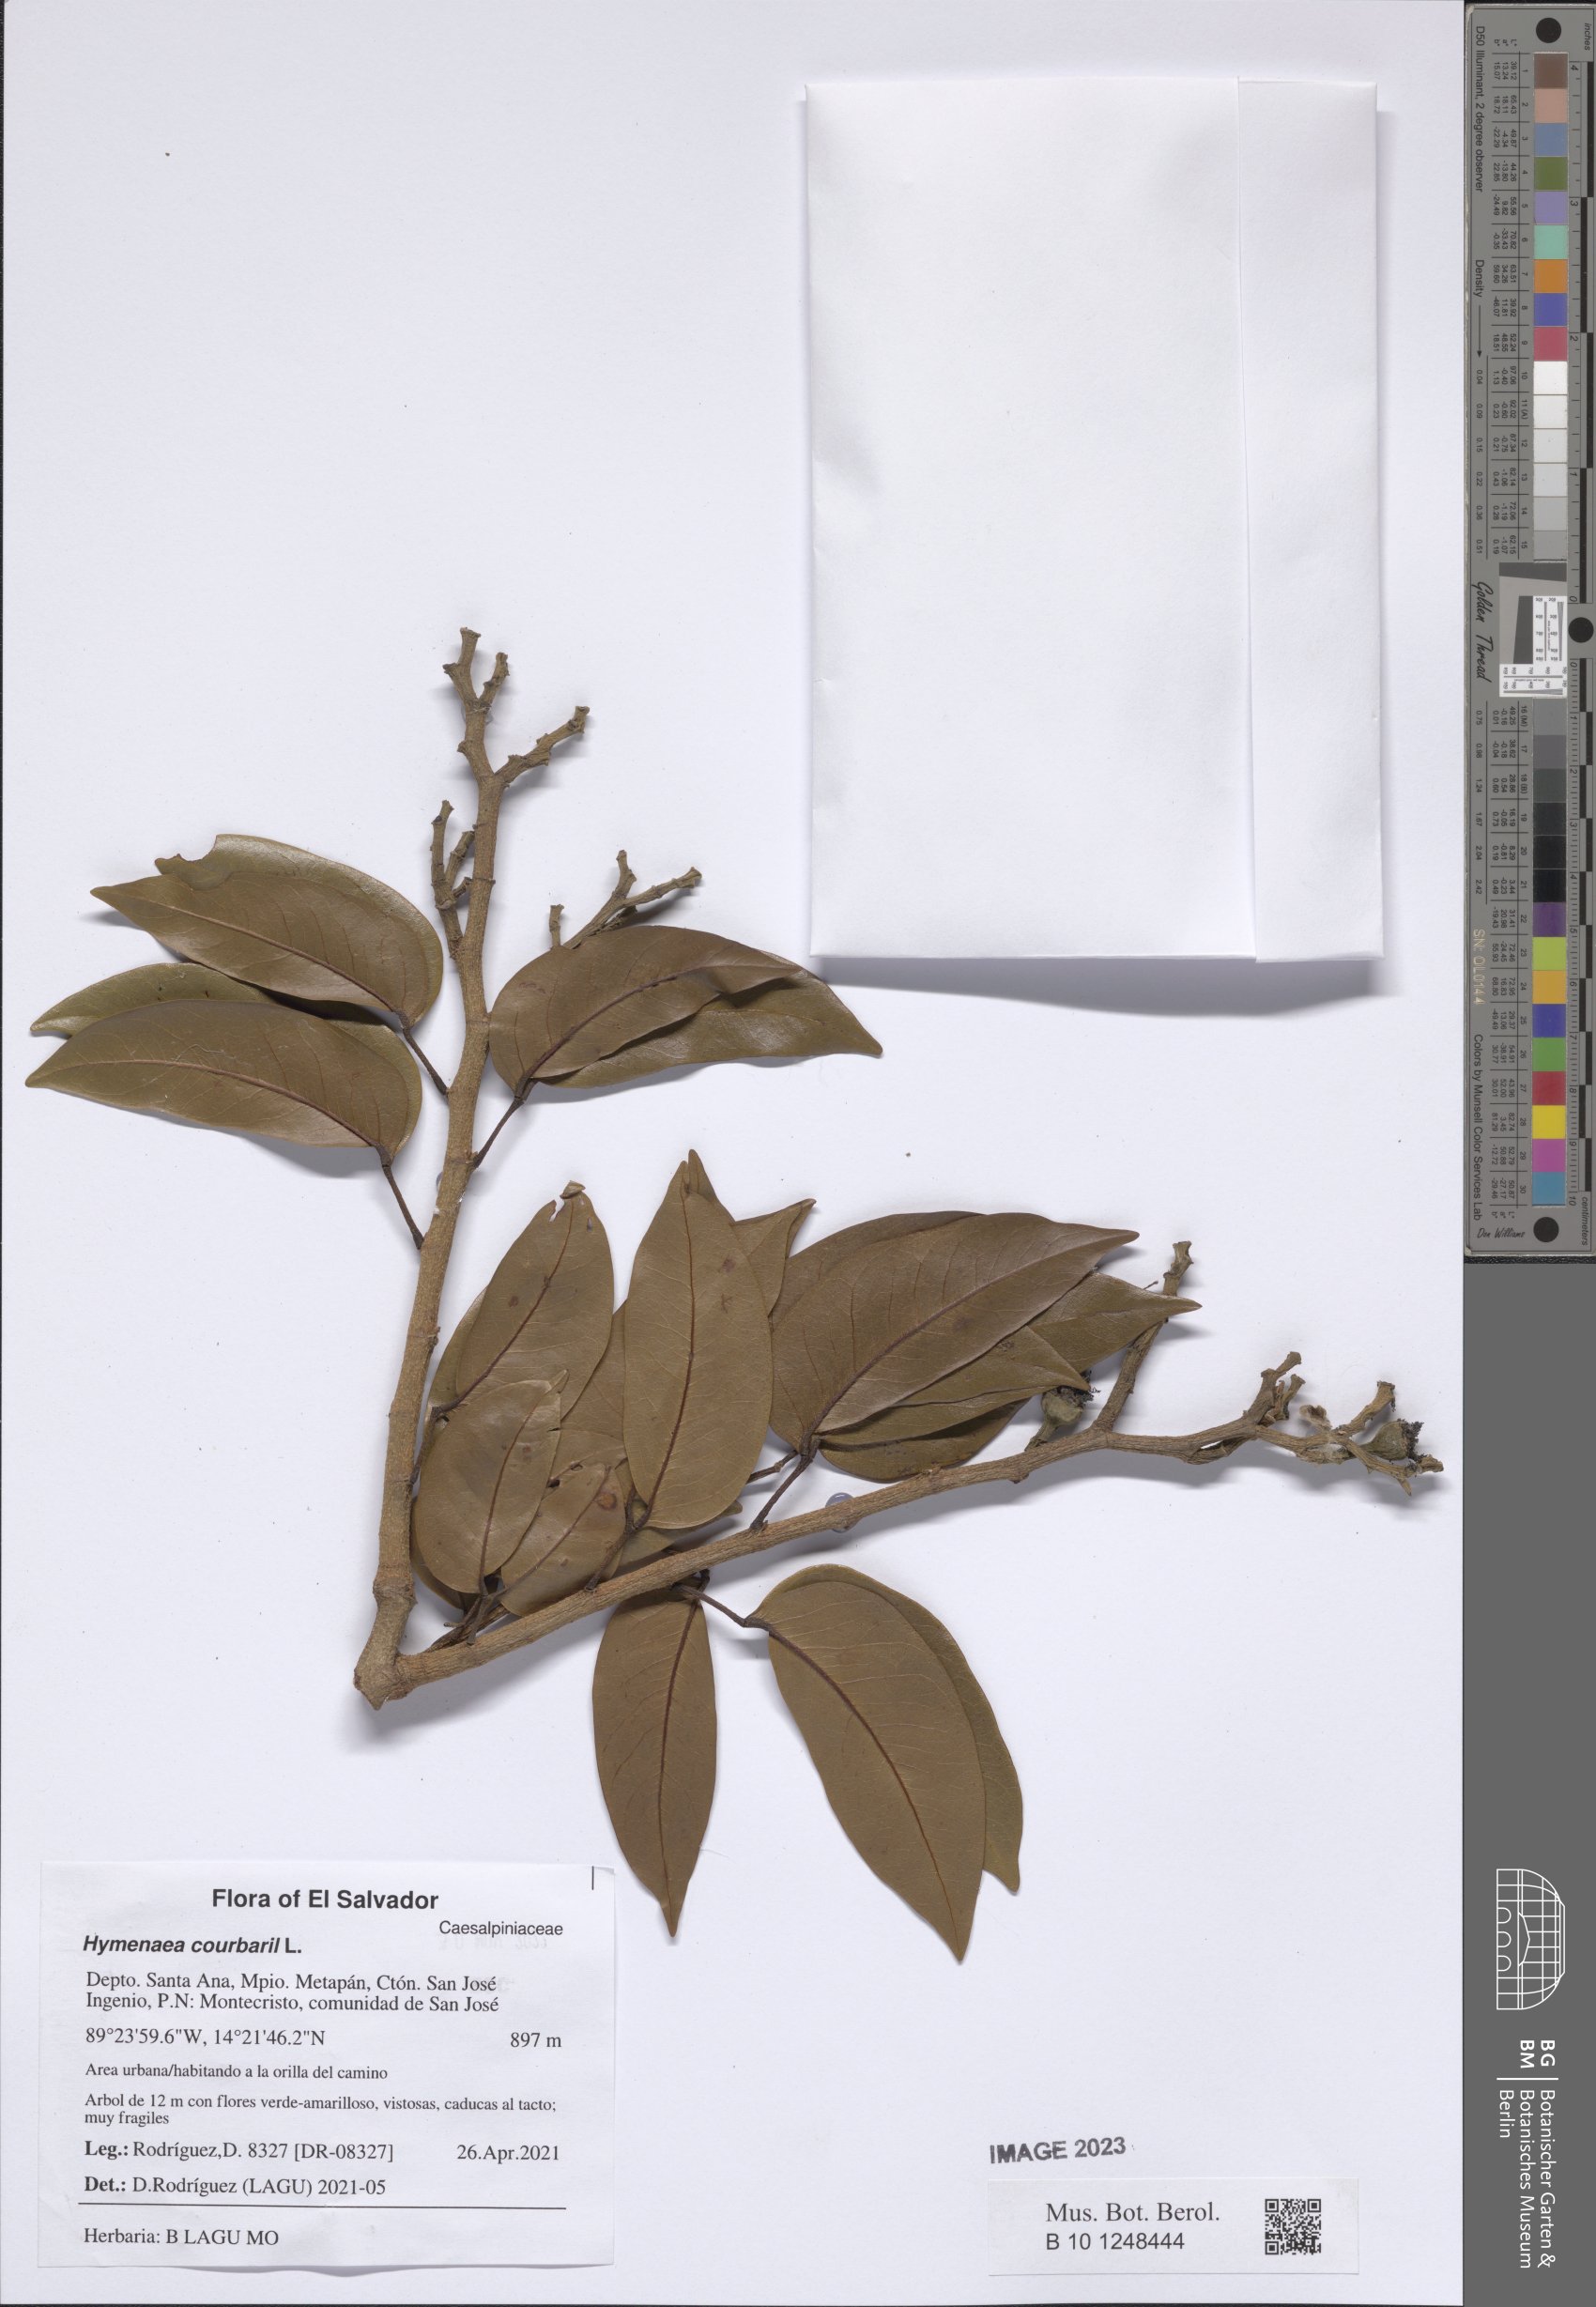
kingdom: Plantae
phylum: Tracheophyta
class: Magnoliopsida
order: Fabales
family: Fabaceae
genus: Hymenaea
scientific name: Hymenaea courbaril
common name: Brazilian copal
